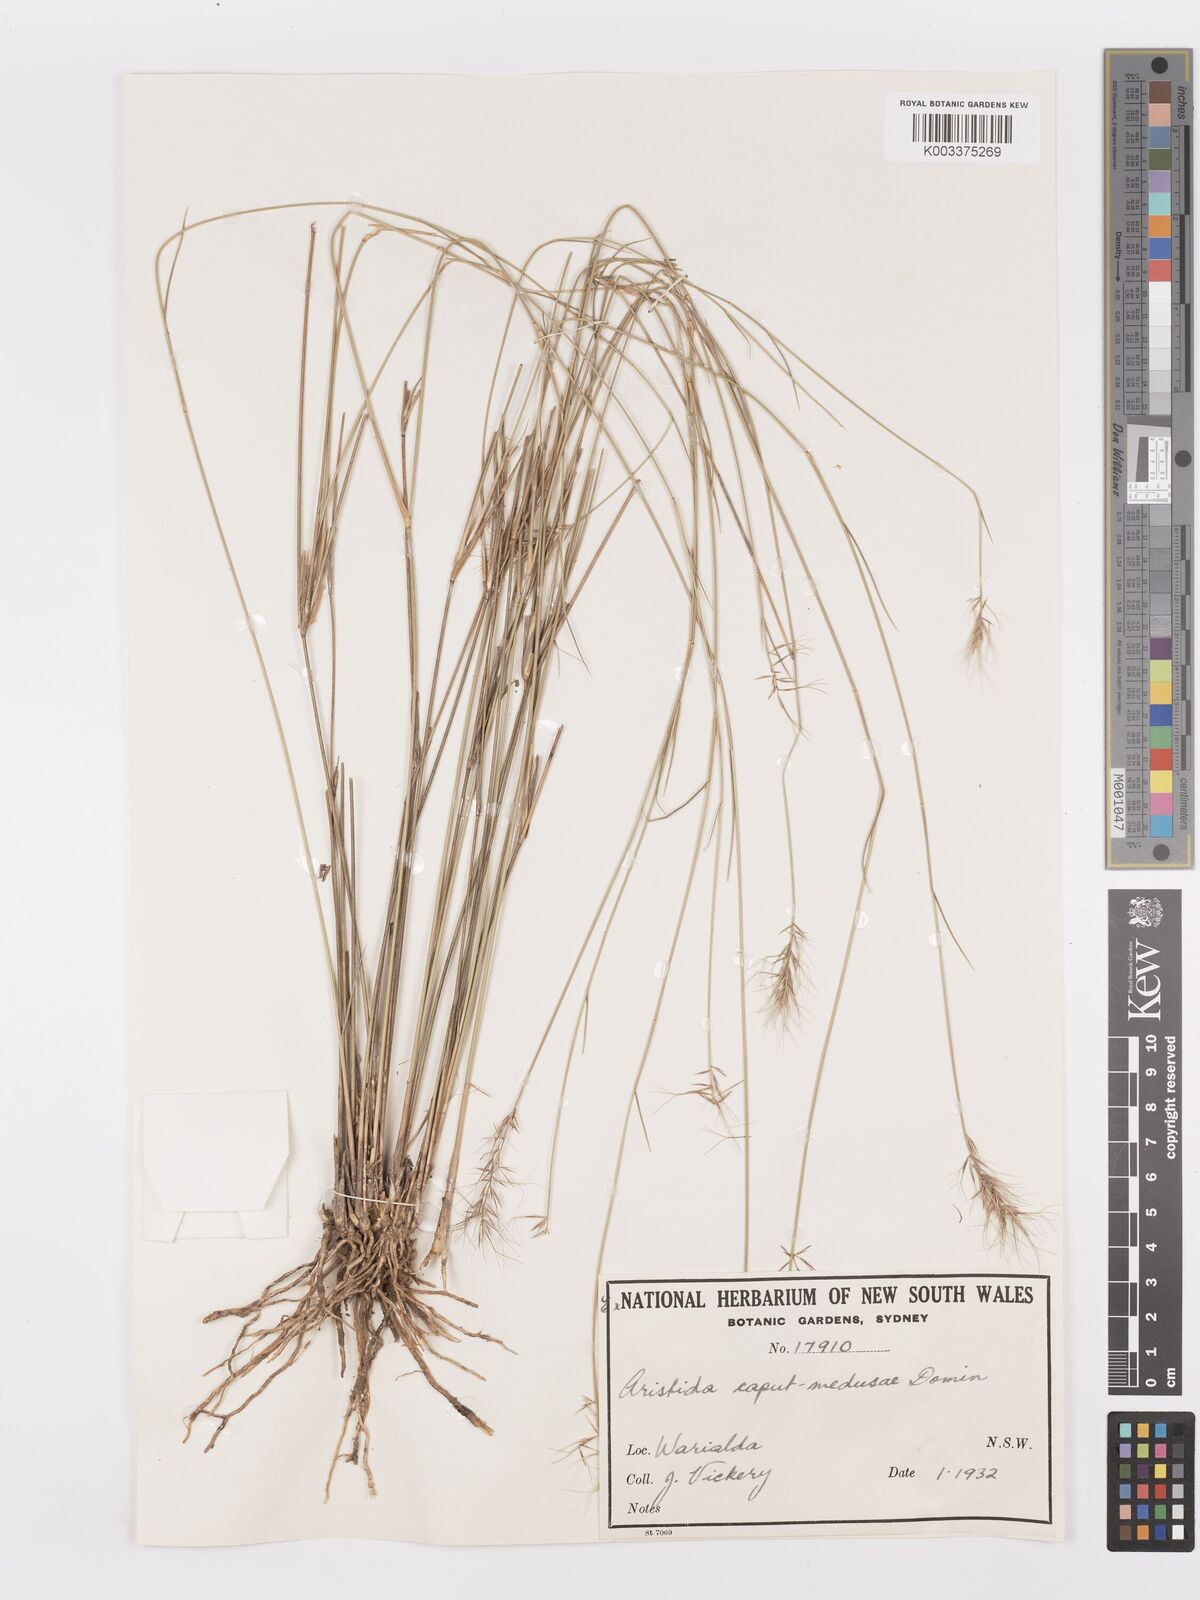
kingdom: Plantae
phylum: Tracheophyta
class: Liliopsida
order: Poales
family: Poaceae
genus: Aristida
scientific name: Aristida caput-medusae
